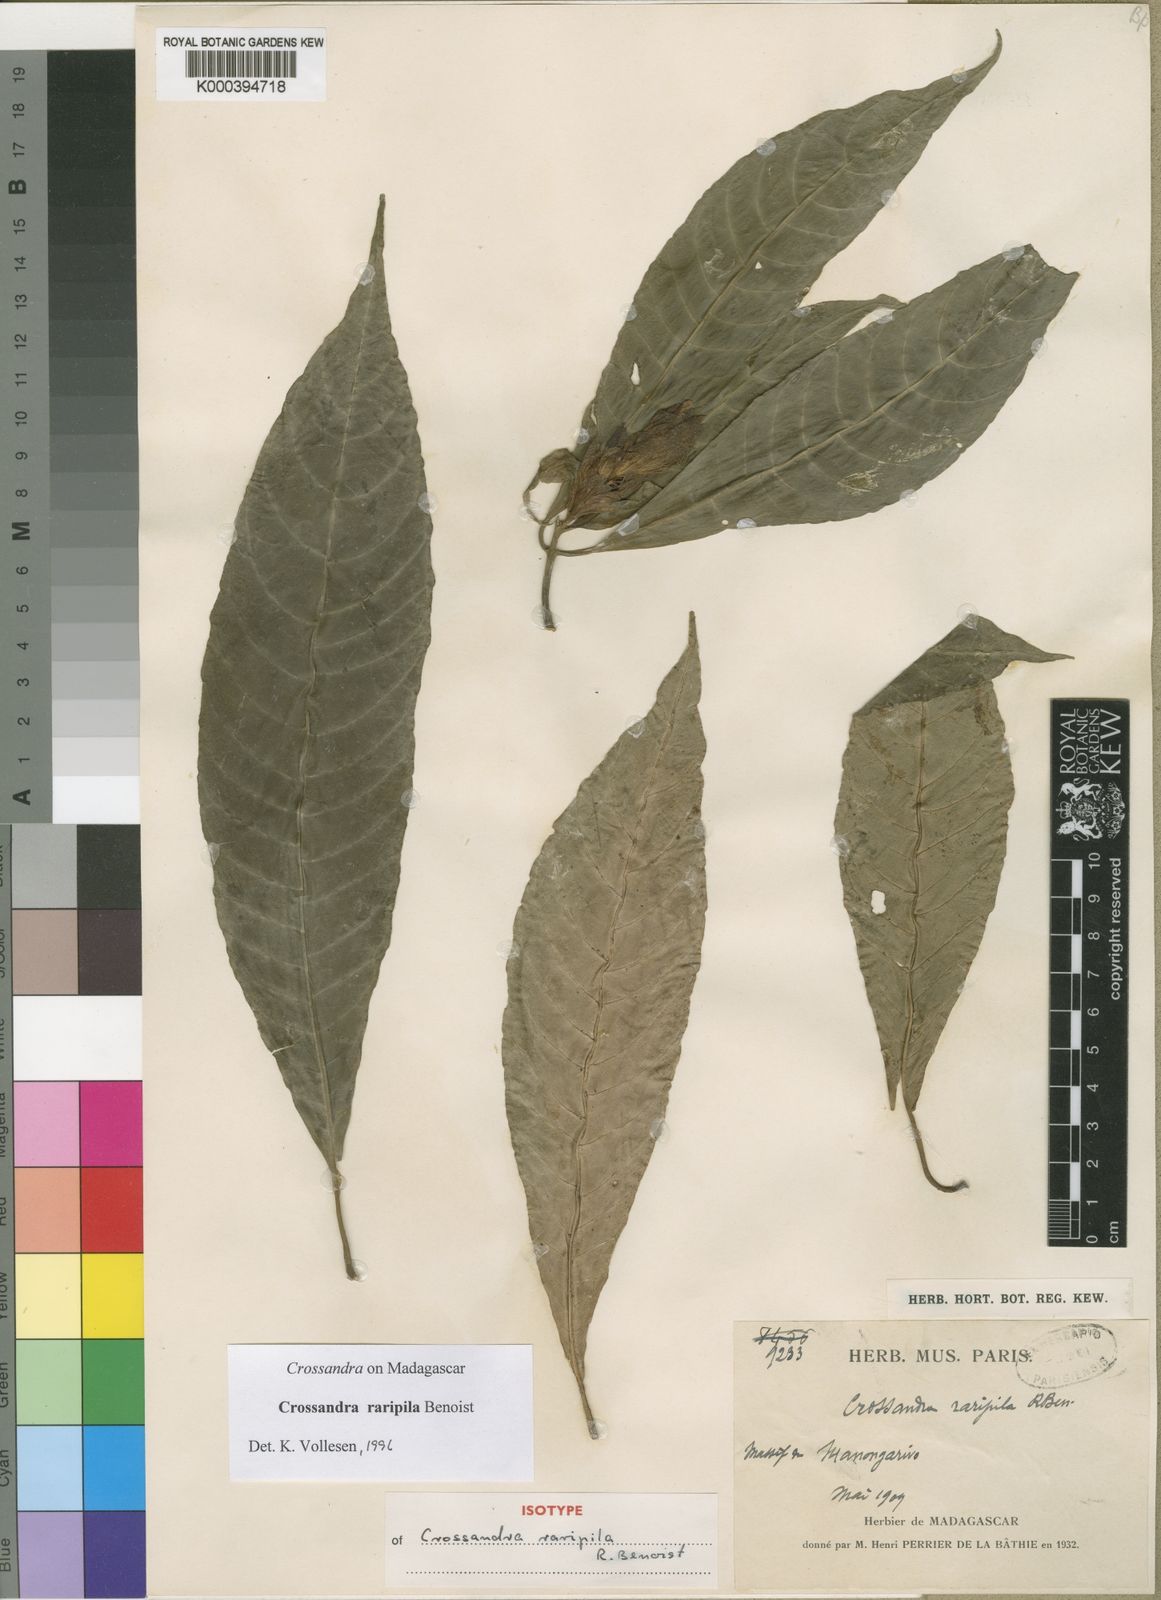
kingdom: Plantae
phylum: Tracheophyta
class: Magnoliopsida
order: Lamiales
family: Acanthaceae
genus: Crossandra
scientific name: Crossandra raripila
